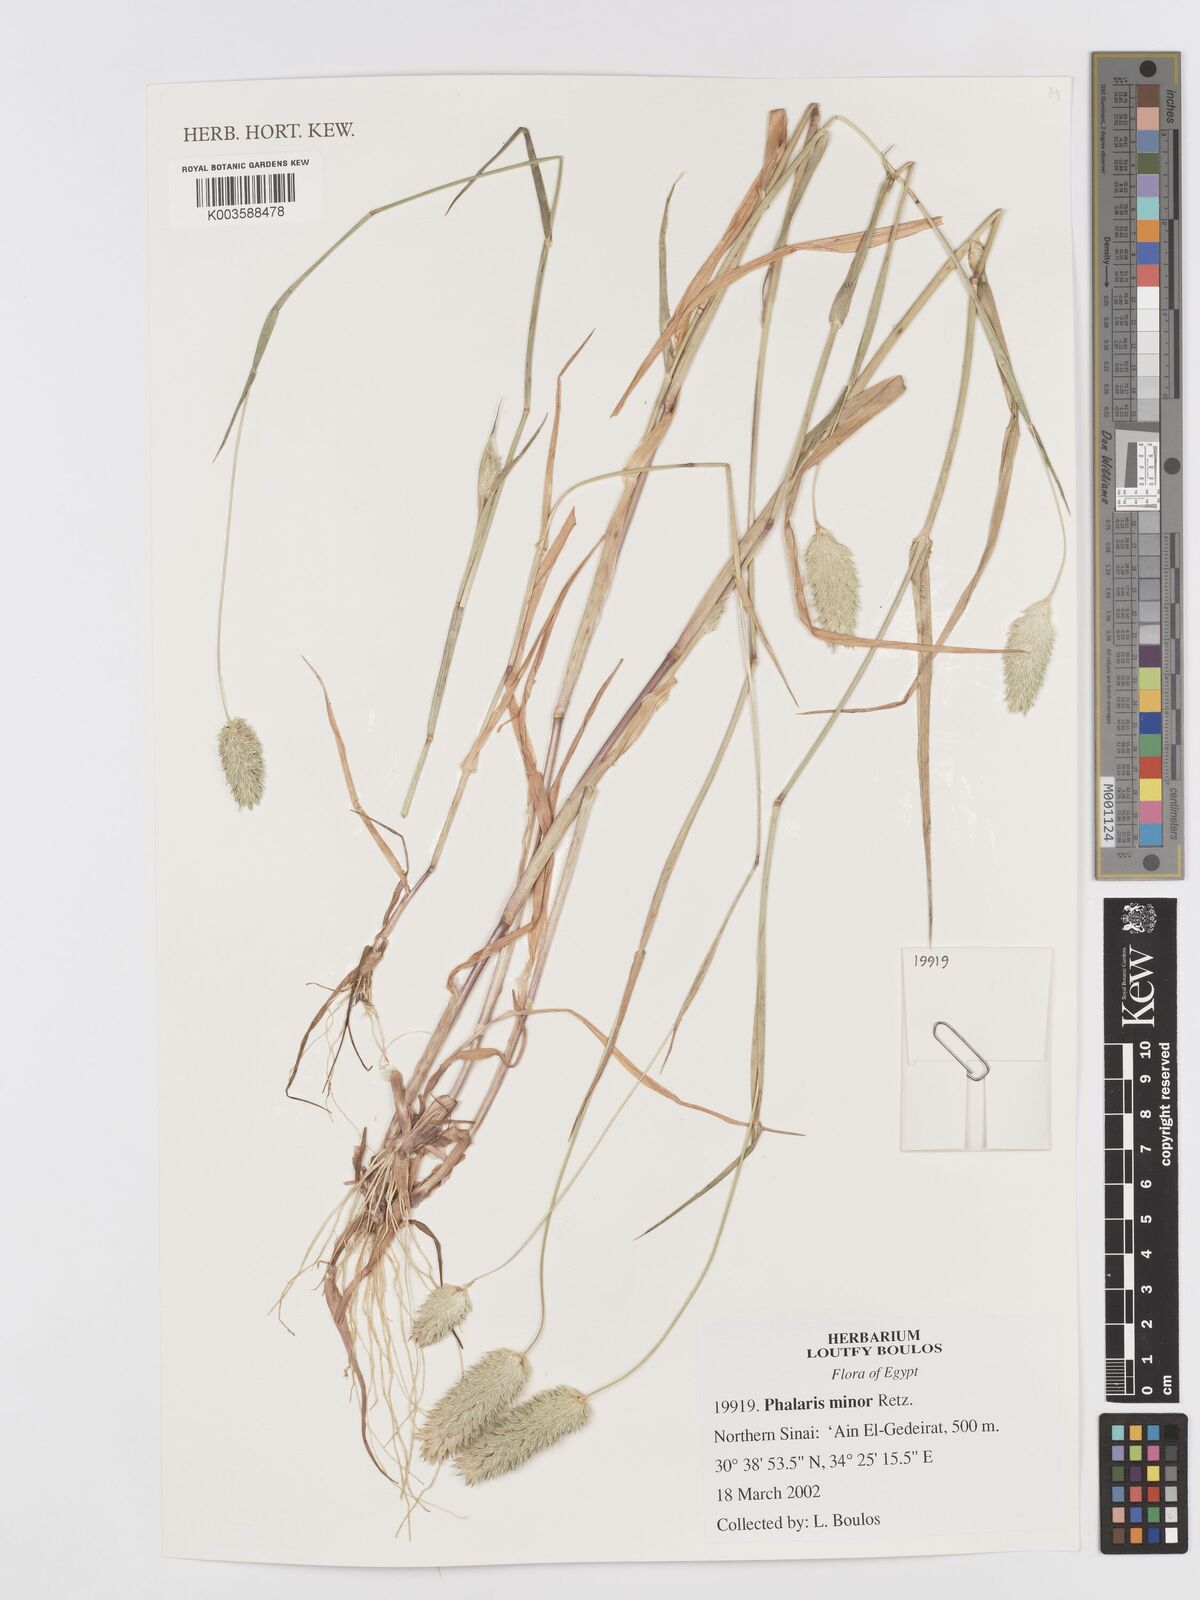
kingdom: Plantae
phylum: Tracheophyta
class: Liliopsida
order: Poales
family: Poaceae
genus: Phalaris
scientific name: Phalaris minor
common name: Littleseed canarygrass
